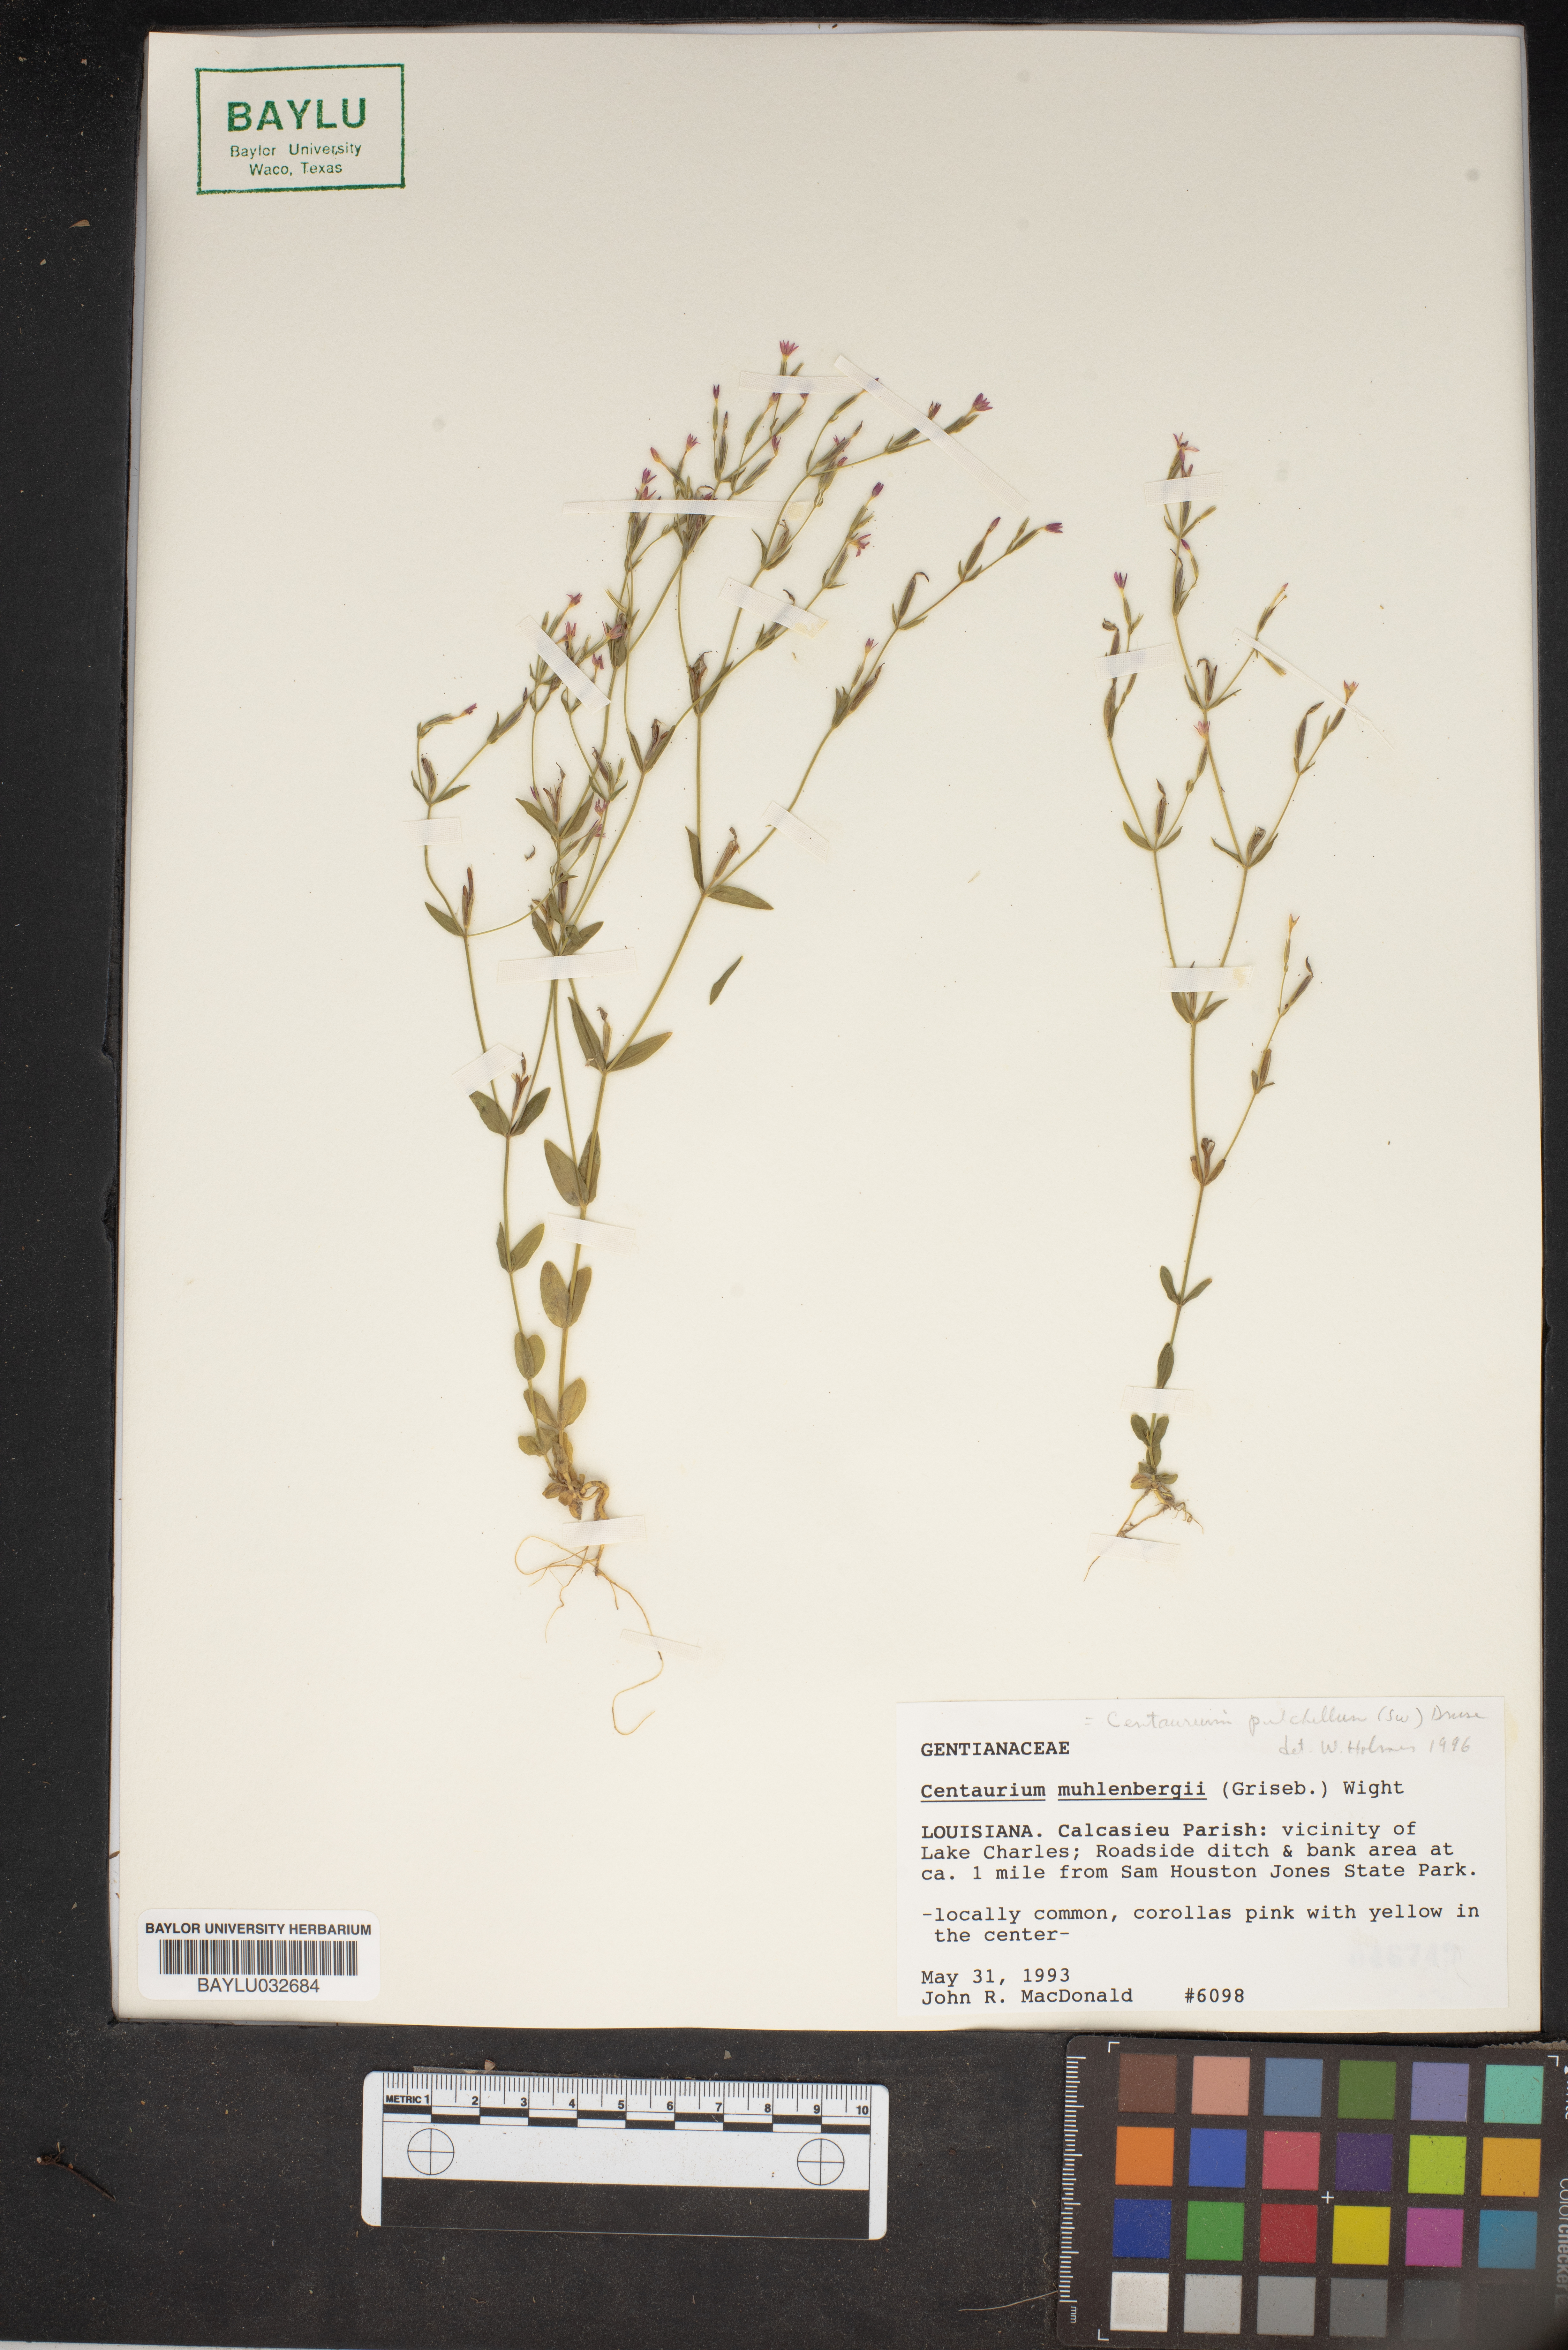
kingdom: Plantae
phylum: Tracheophyta
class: Magnoliopsida
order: Gentianales
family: Gentianaceae
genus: Zeltnera
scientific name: Zeltnera muhlenbergii
